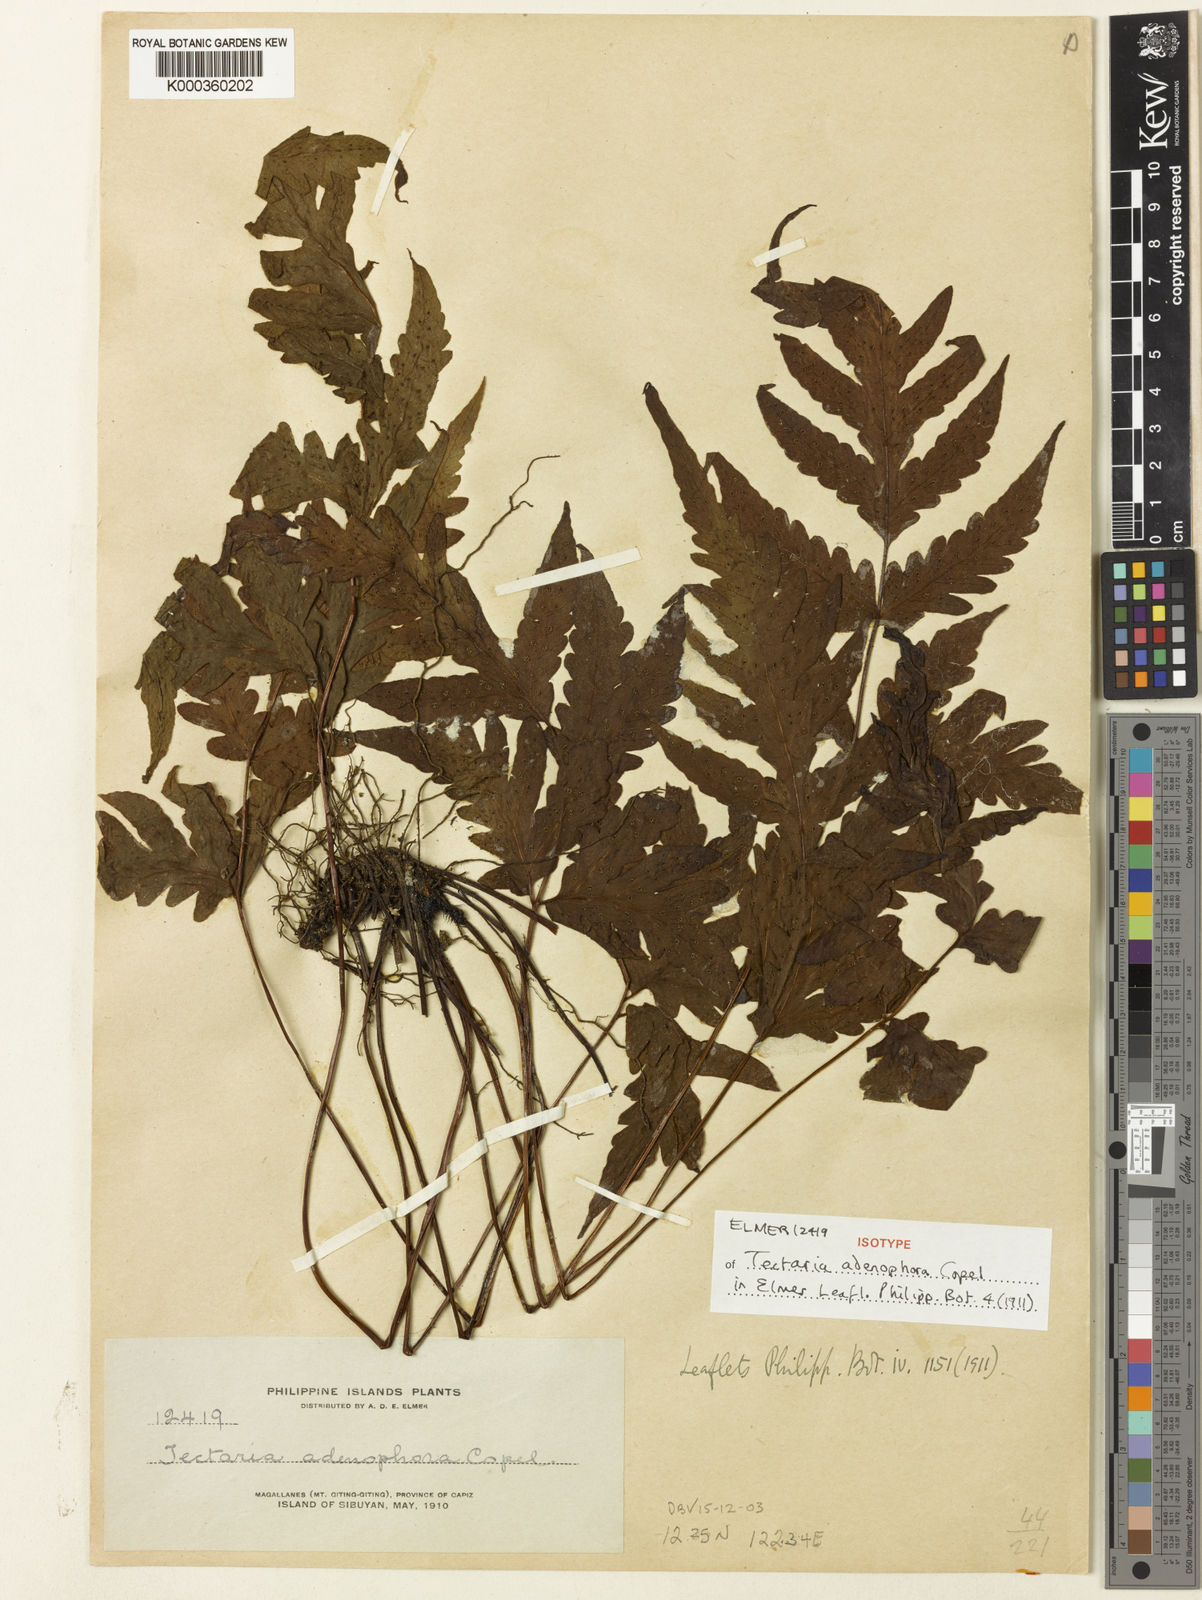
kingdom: Plantae
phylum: Tracheophyta
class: Polypodiopsida
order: Polypodiales
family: Tectariaceae
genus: Tectaria
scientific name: Tectaria adenophora
